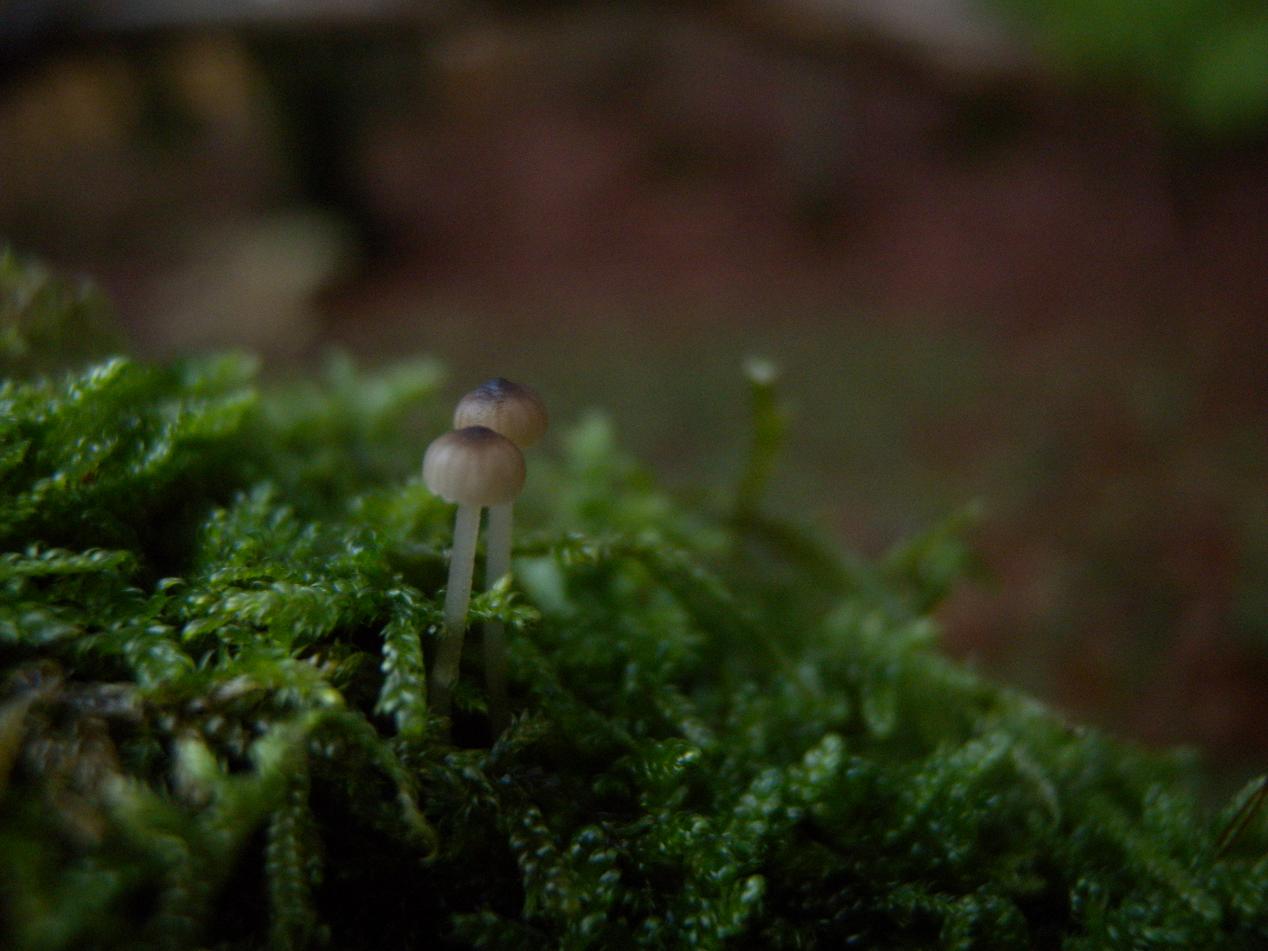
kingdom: Fungi
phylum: Basidiomycota
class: Agaricomycetes
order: Agaricales
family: Porotheleaceae
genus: Phloeomana
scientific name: Phloeomana speirea
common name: kvist-huesvamp
